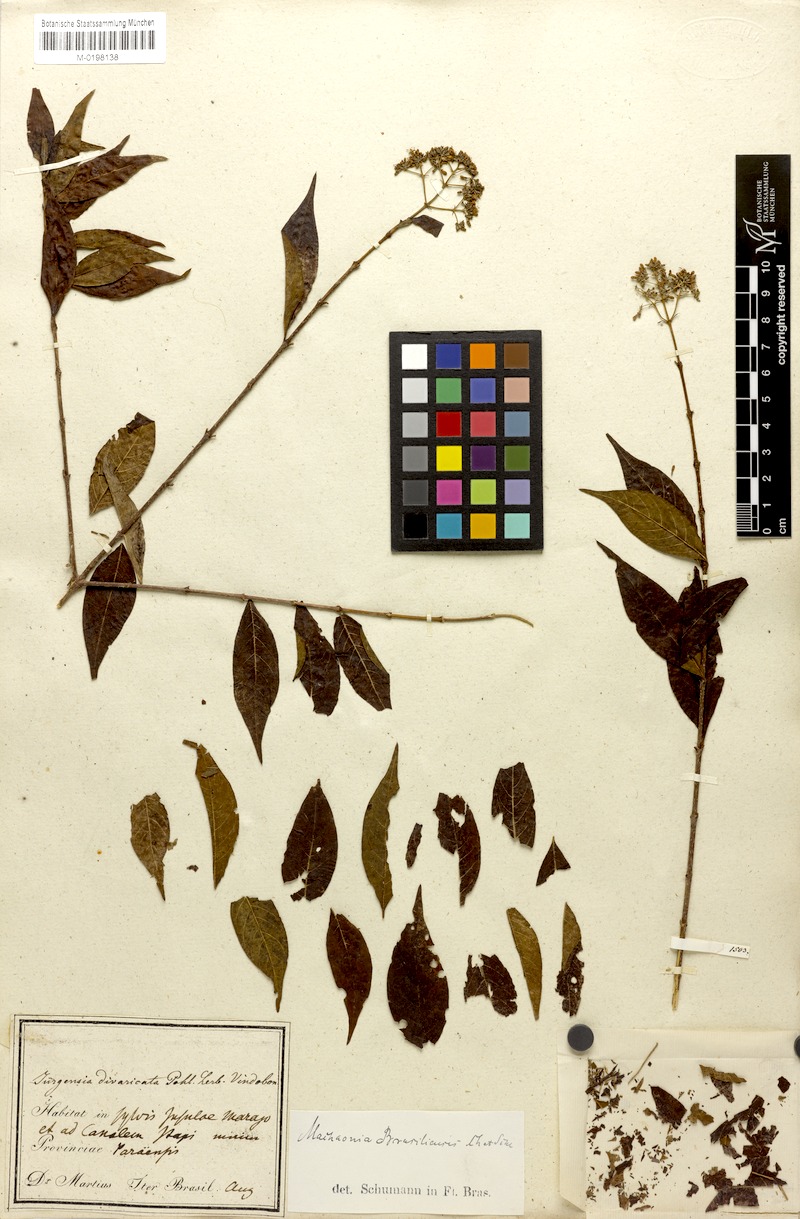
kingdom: Plantae
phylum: Tracheophyta
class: Magnoliopsida
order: Gentianales
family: Rubiaceae
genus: Machaonia
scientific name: Machaonia brasiliensis
